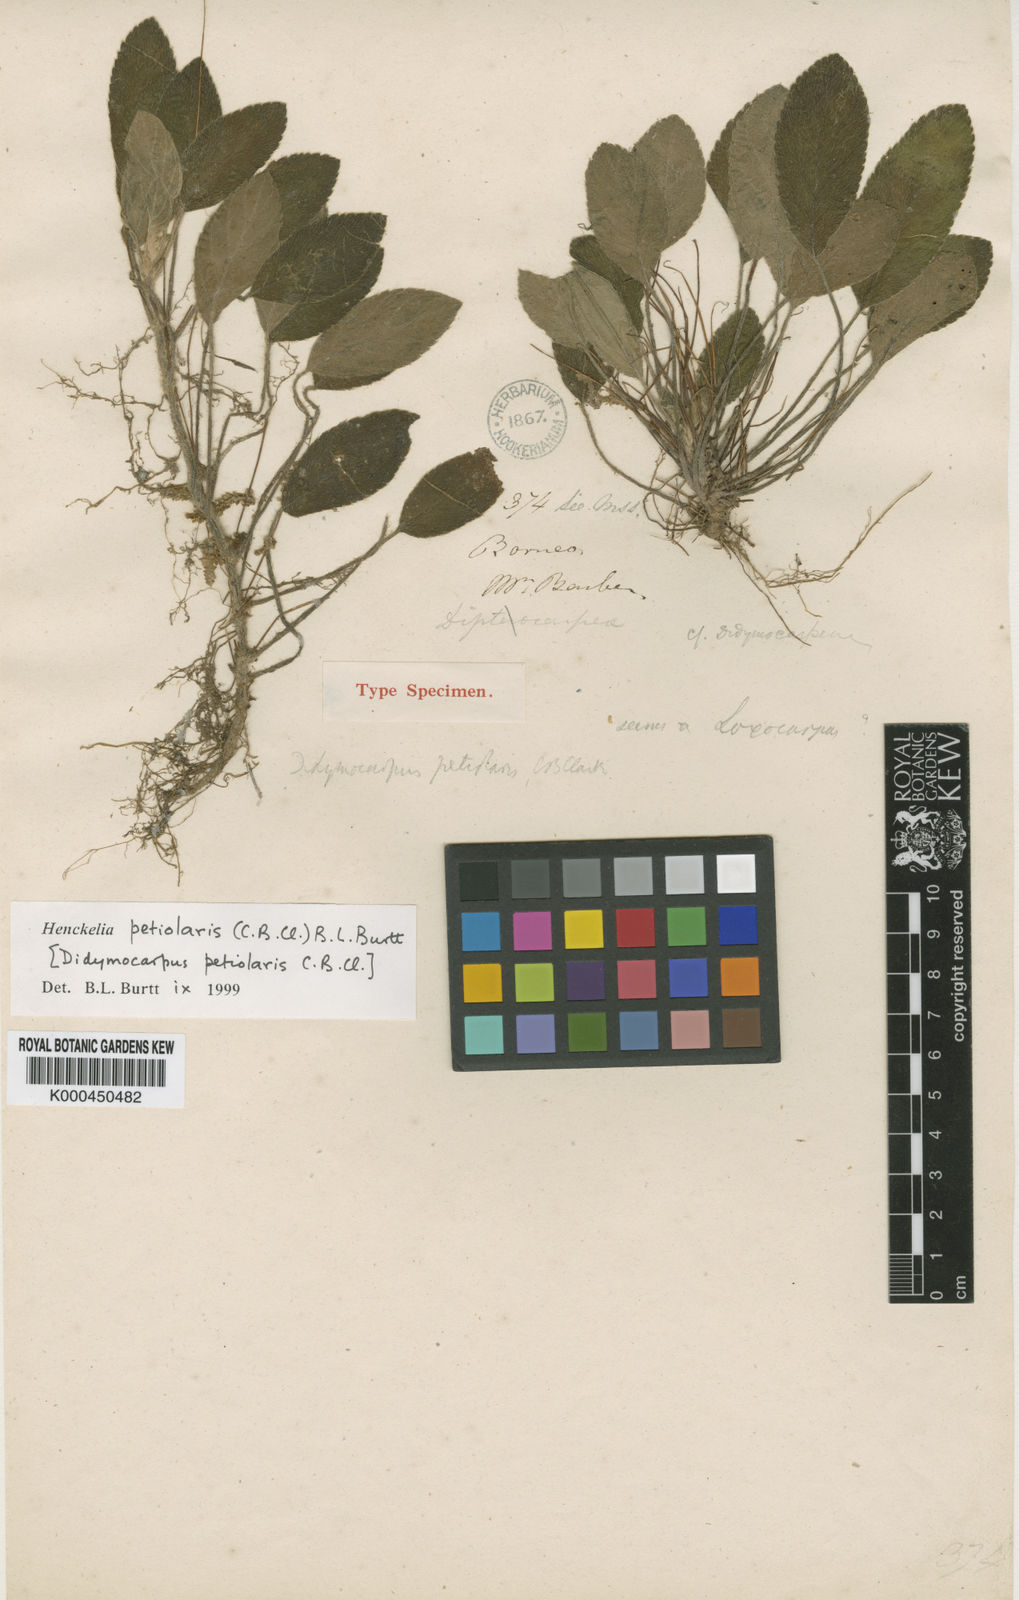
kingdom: Plantae
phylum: Tracheophyta
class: Magnoliopsida
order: Lamiales
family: Gesneriaceae
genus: Henckelia
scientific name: Henckelia petiolaris
